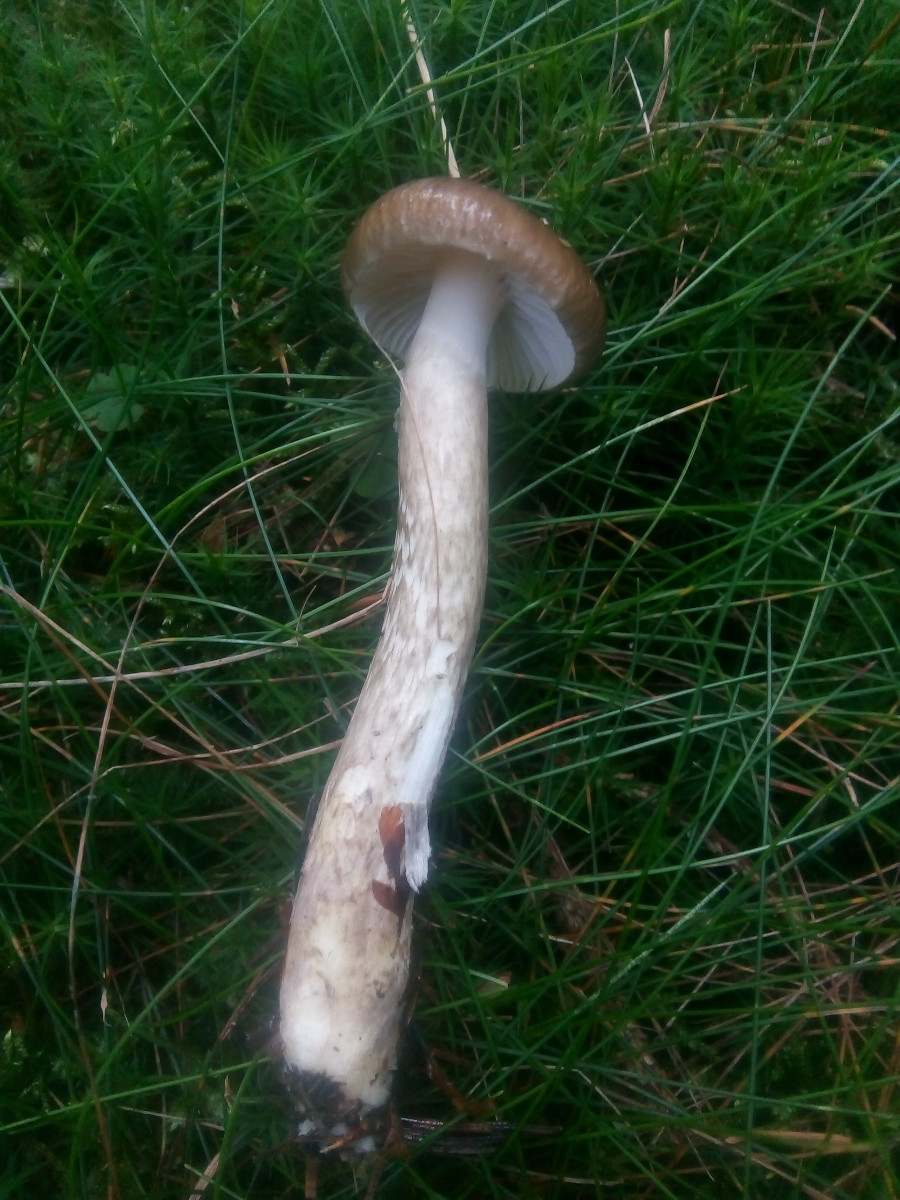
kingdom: Fungi
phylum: Basidiomycota
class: Agaricomycetes
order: Agaricales
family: Hygrophoraceae
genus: Hygrophorus
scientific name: Hygrophorus olivaceoalbus
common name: hvidbrun sneglehat
